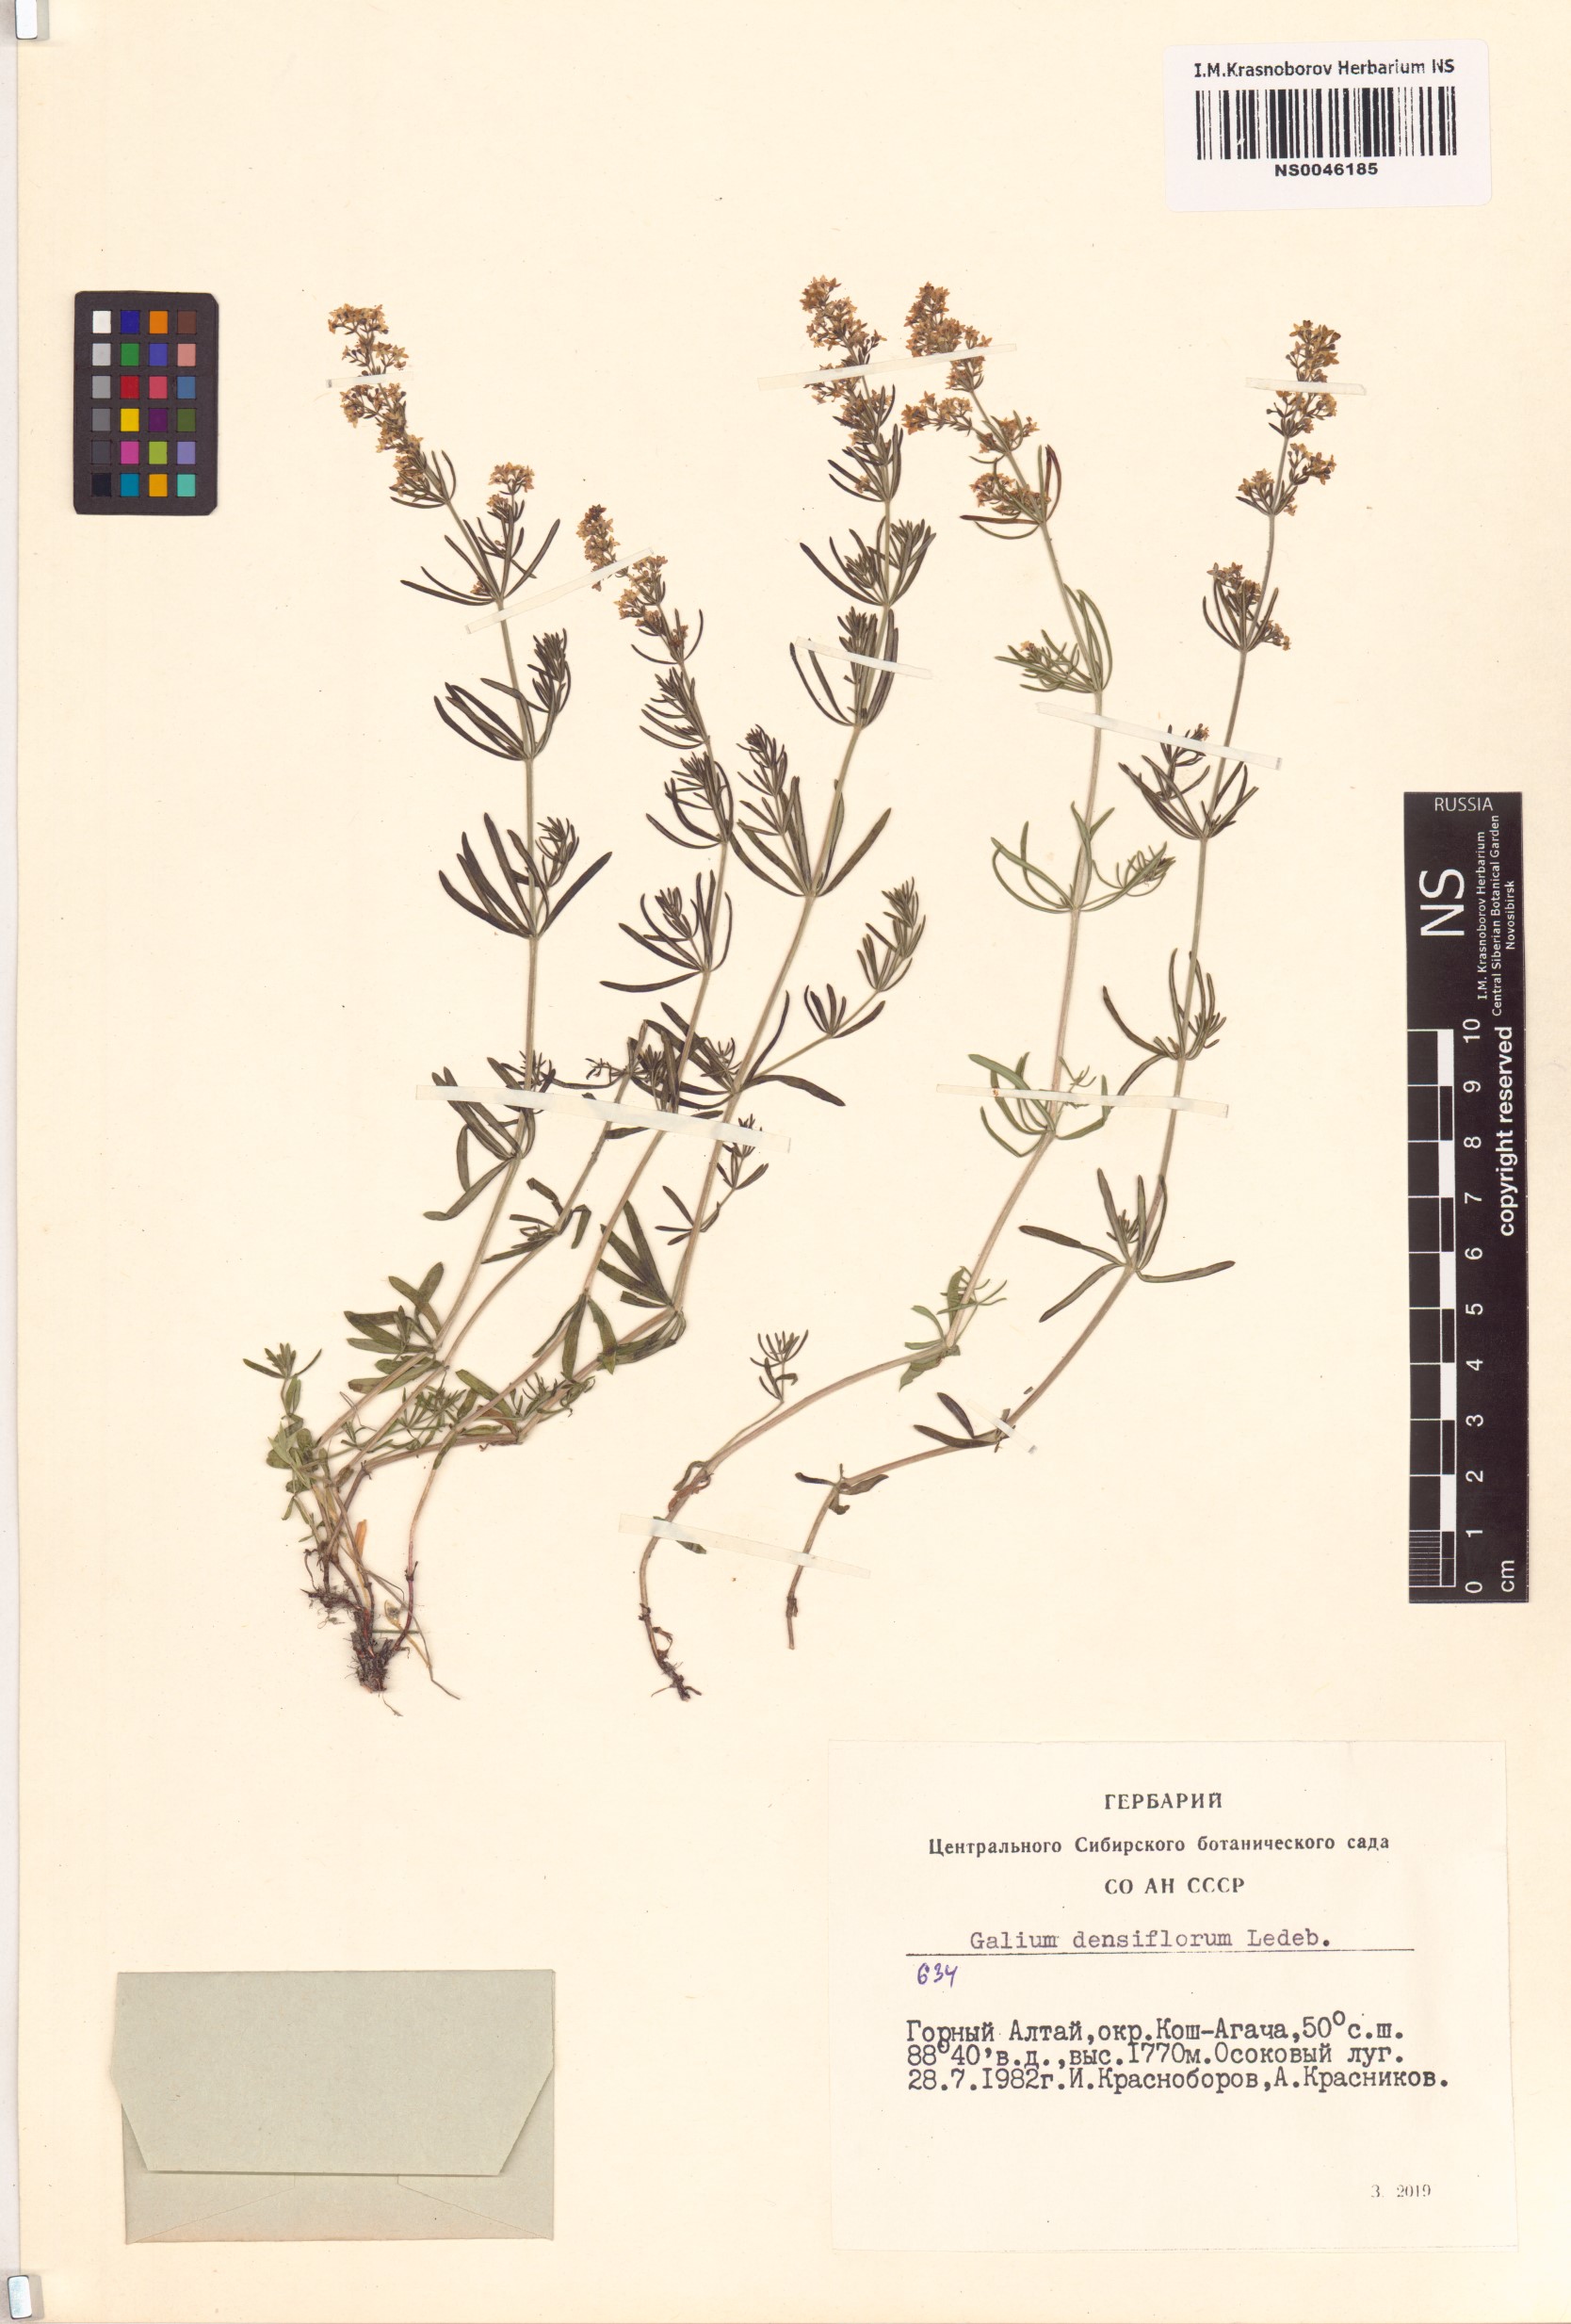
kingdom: Plantae
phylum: Tracheophyta
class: Magnoliopsida
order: Gentianales
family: Rubiaceae
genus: Galium
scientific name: Galium densiflorum
